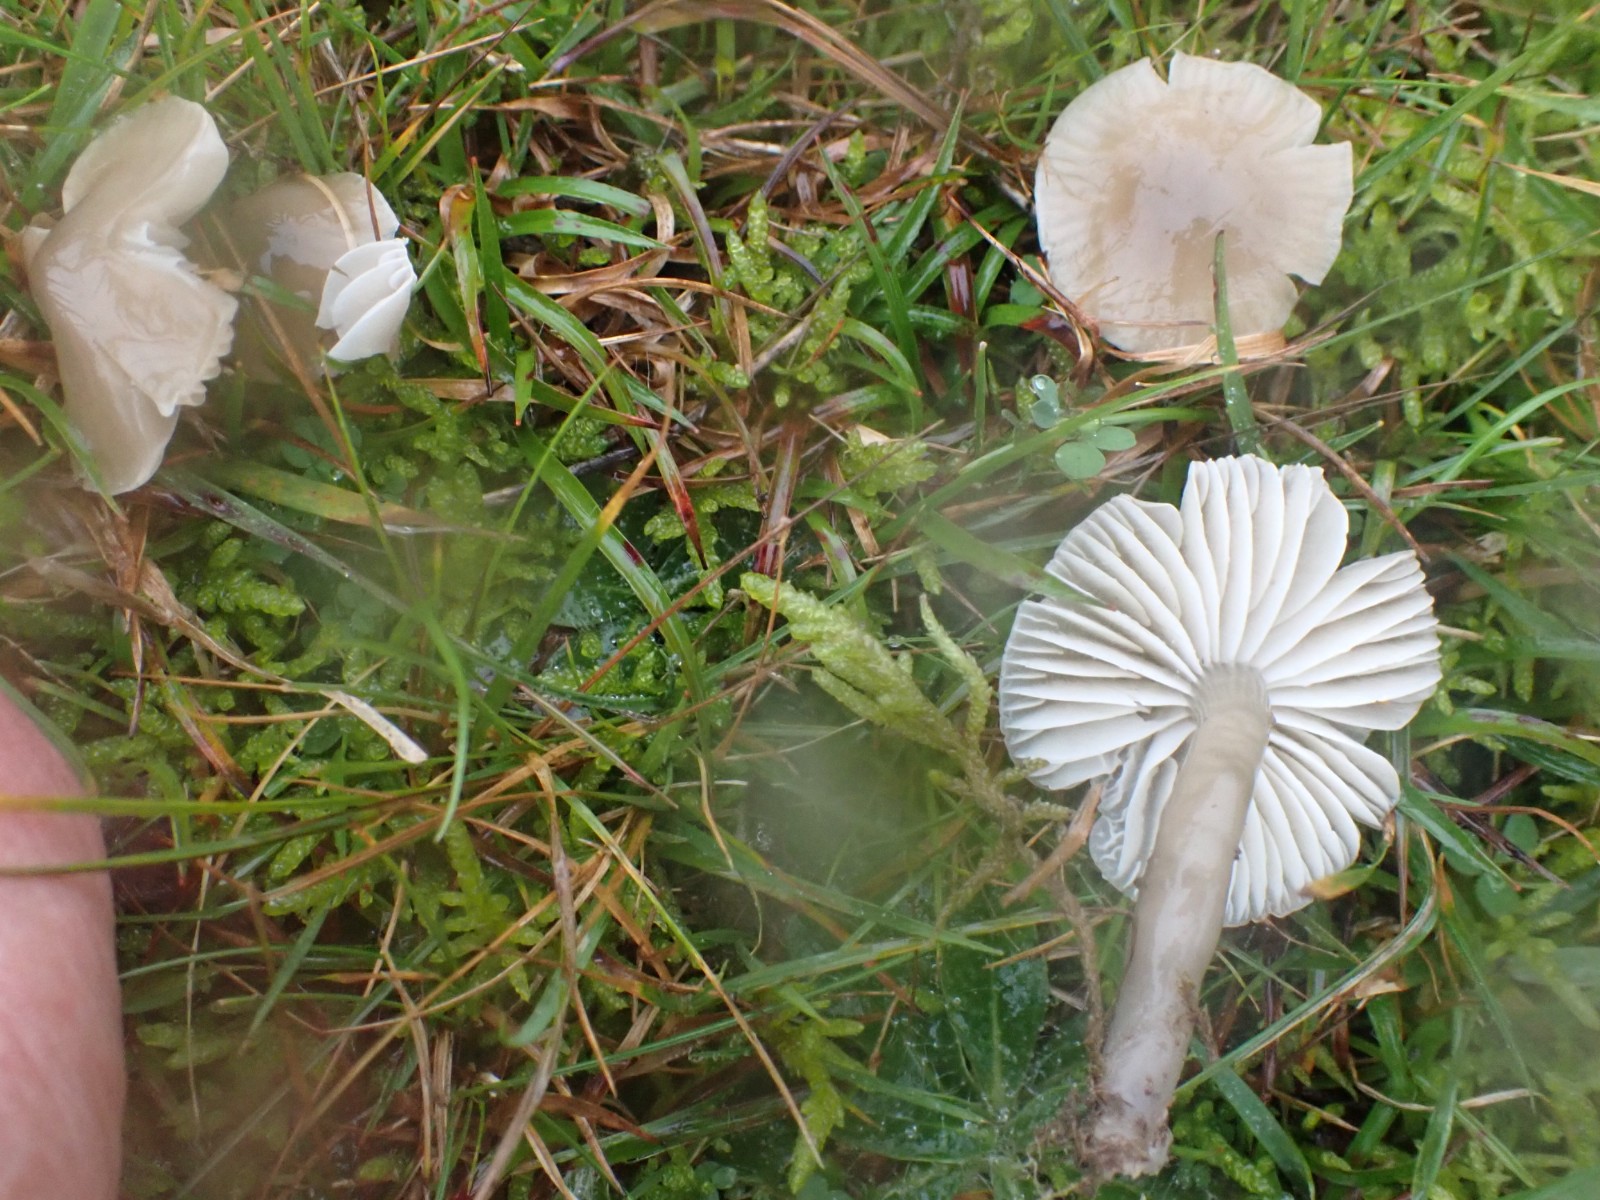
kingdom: Fungi
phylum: Basidiomycota
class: Agaricomycetes
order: Agaricales
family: Hygrophoraceae
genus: Gliophorus
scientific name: Gliophorus irrigatus
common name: slimet vokshat
